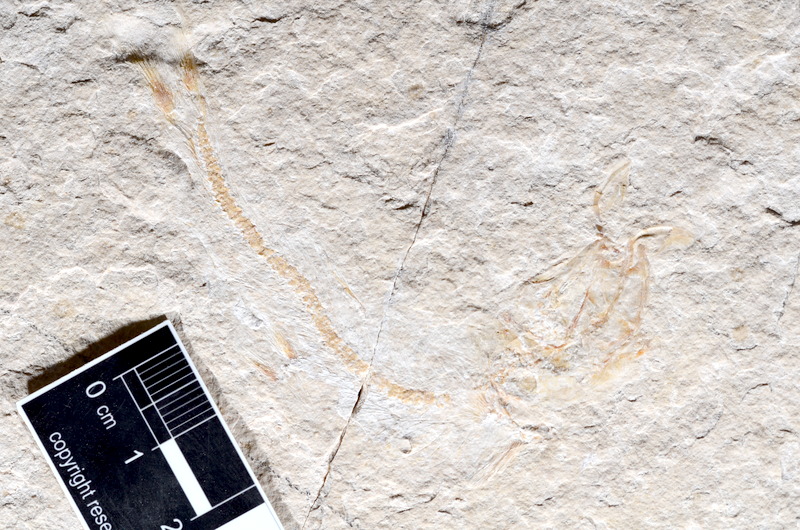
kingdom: Animalia
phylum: Chordata
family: Ascalaboidae
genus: Tharsis
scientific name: Tharsis dubius
